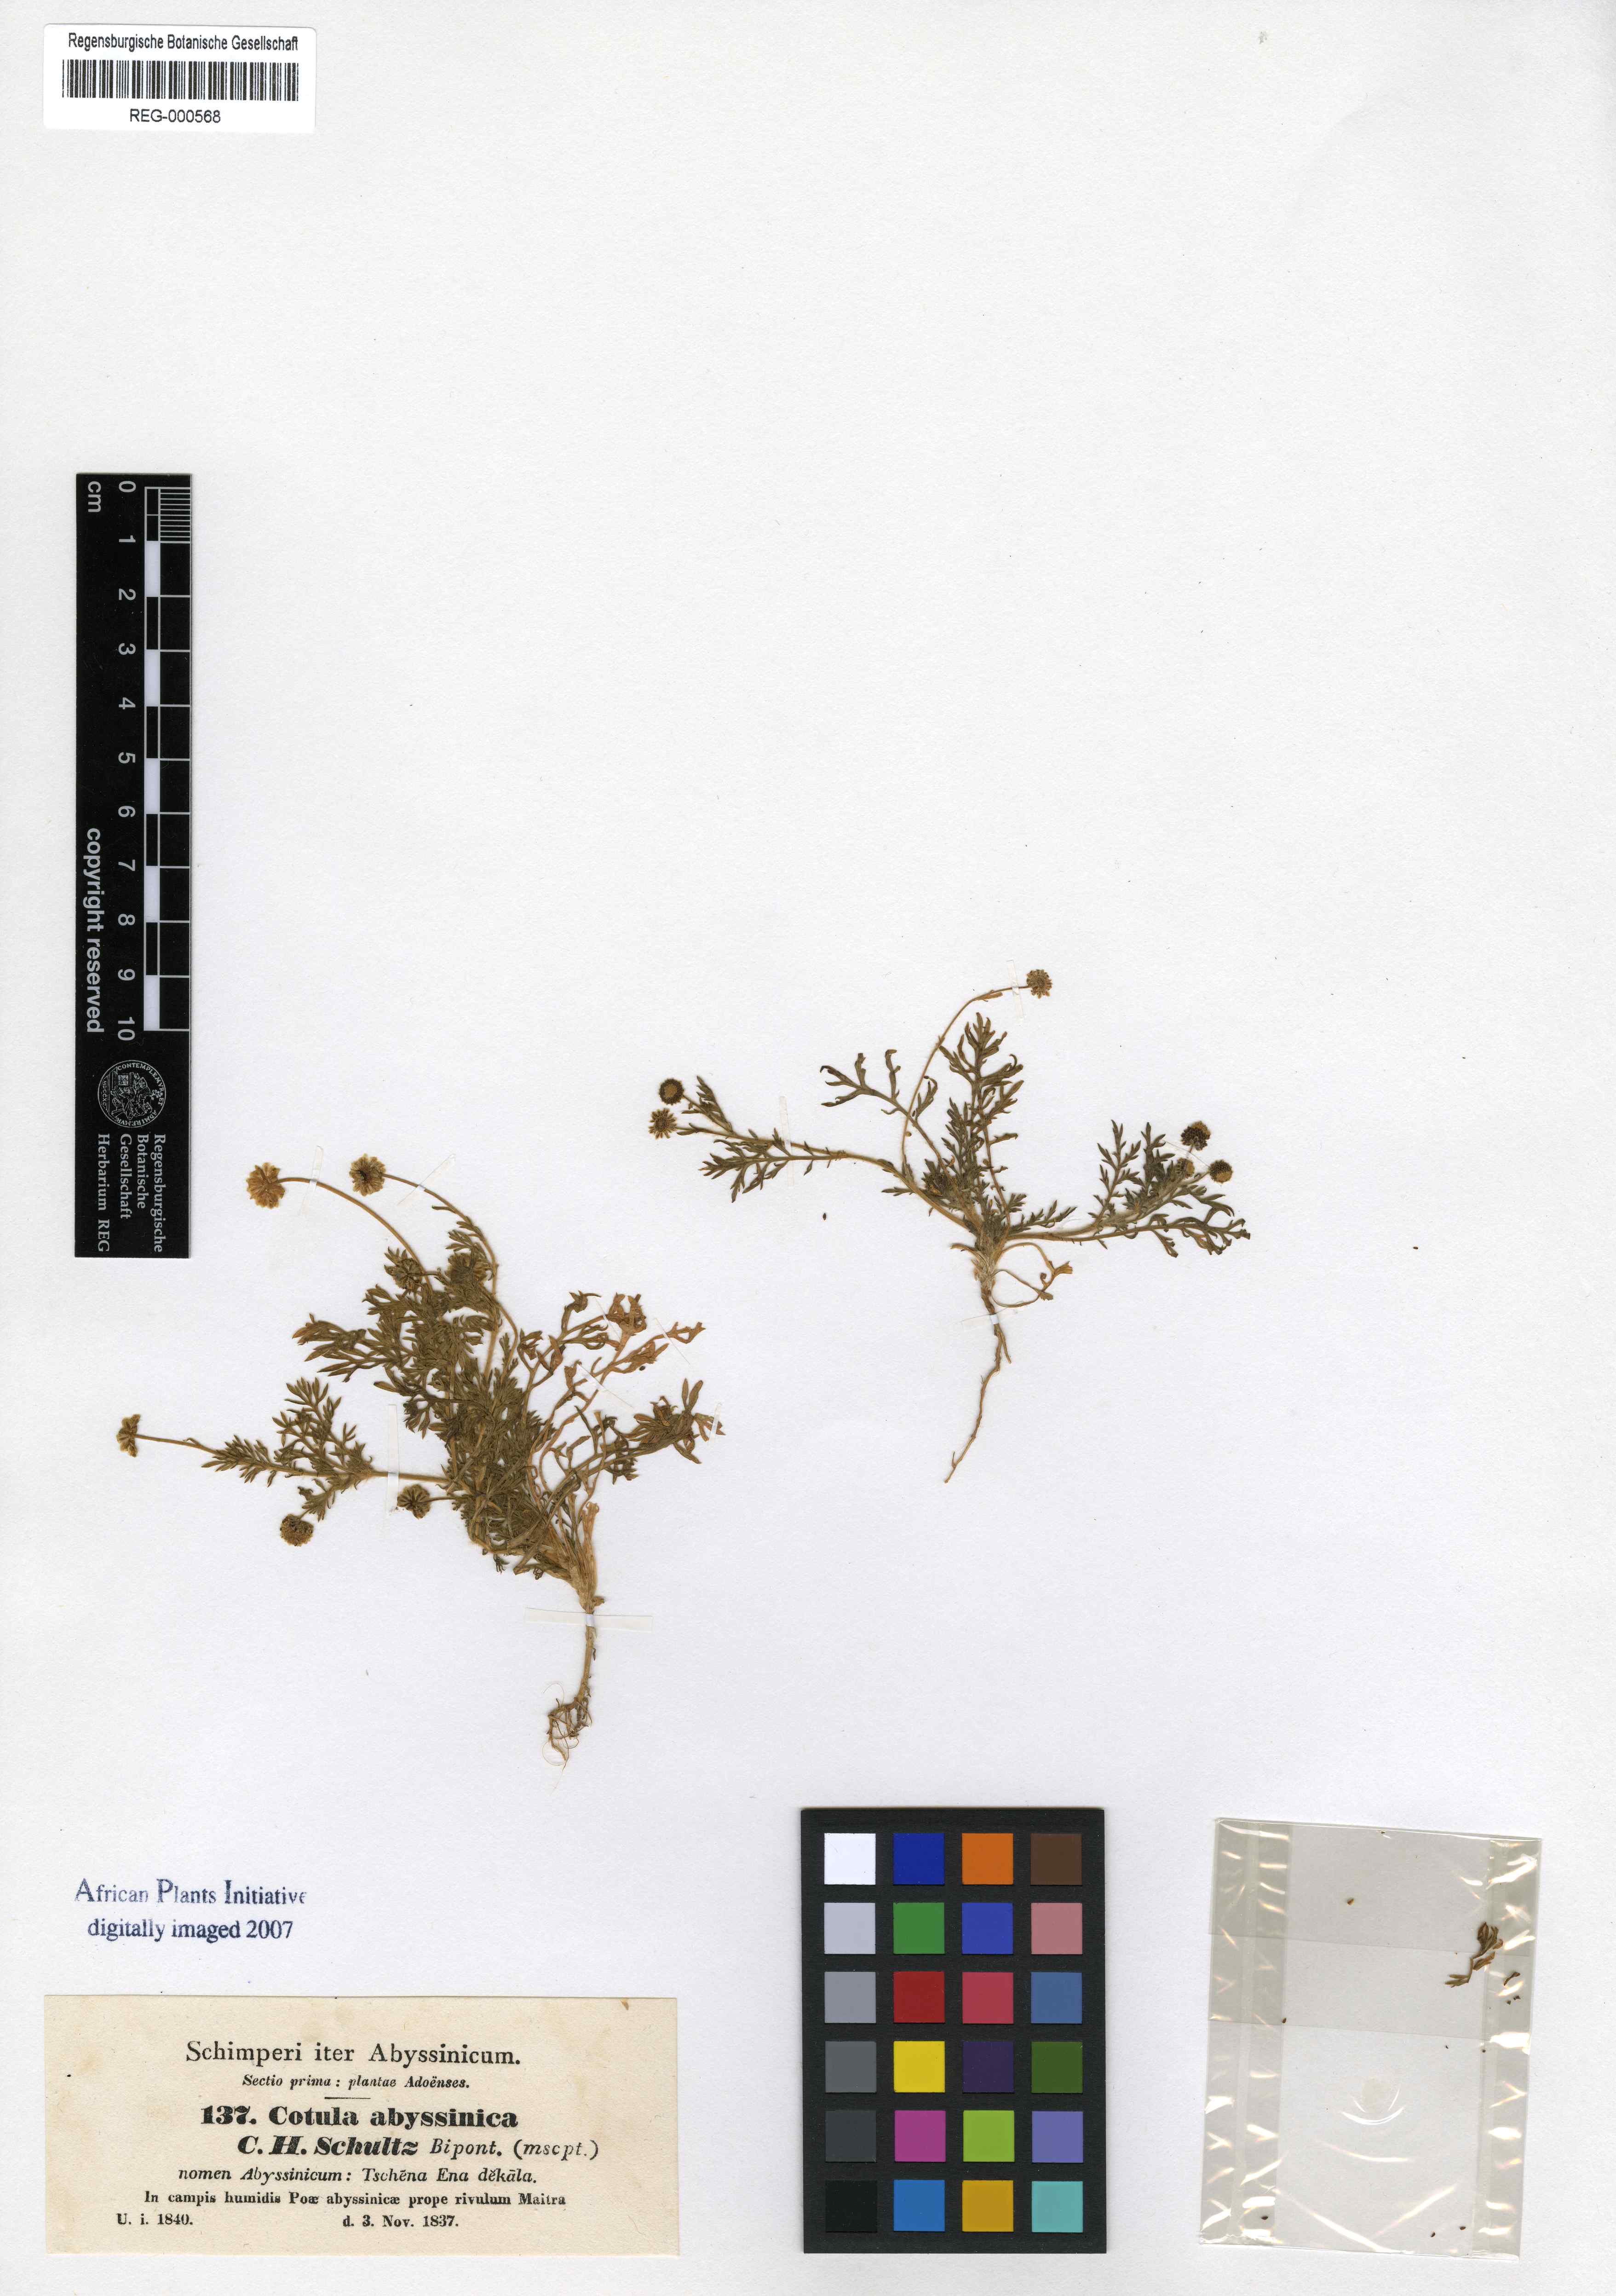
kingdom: Plantae
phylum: Tracheophyta
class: Magnoliopsida
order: Asterales
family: Asteraceae
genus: Cotula
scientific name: Cotula abyssinica
